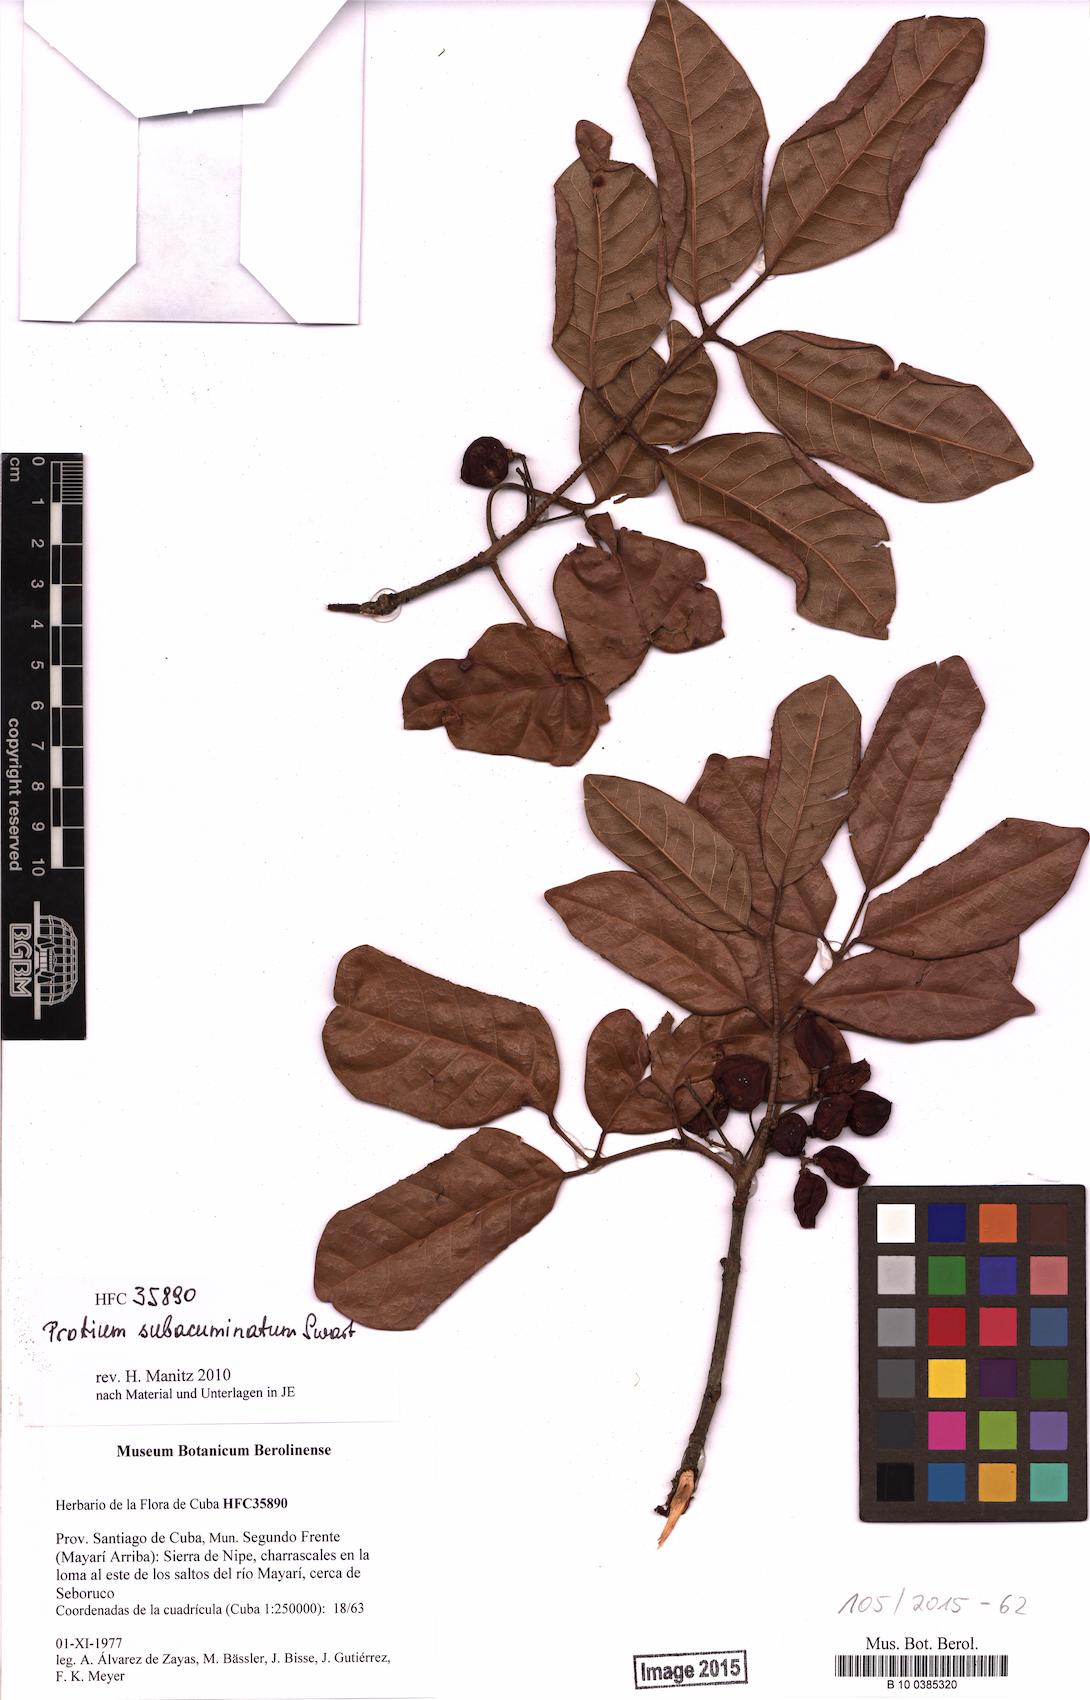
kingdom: Plantae
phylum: Tracheophyta
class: Magnoliopsida
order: Sapindales
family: Burseraceae
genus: Protium
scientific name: Protium subacuminatum
